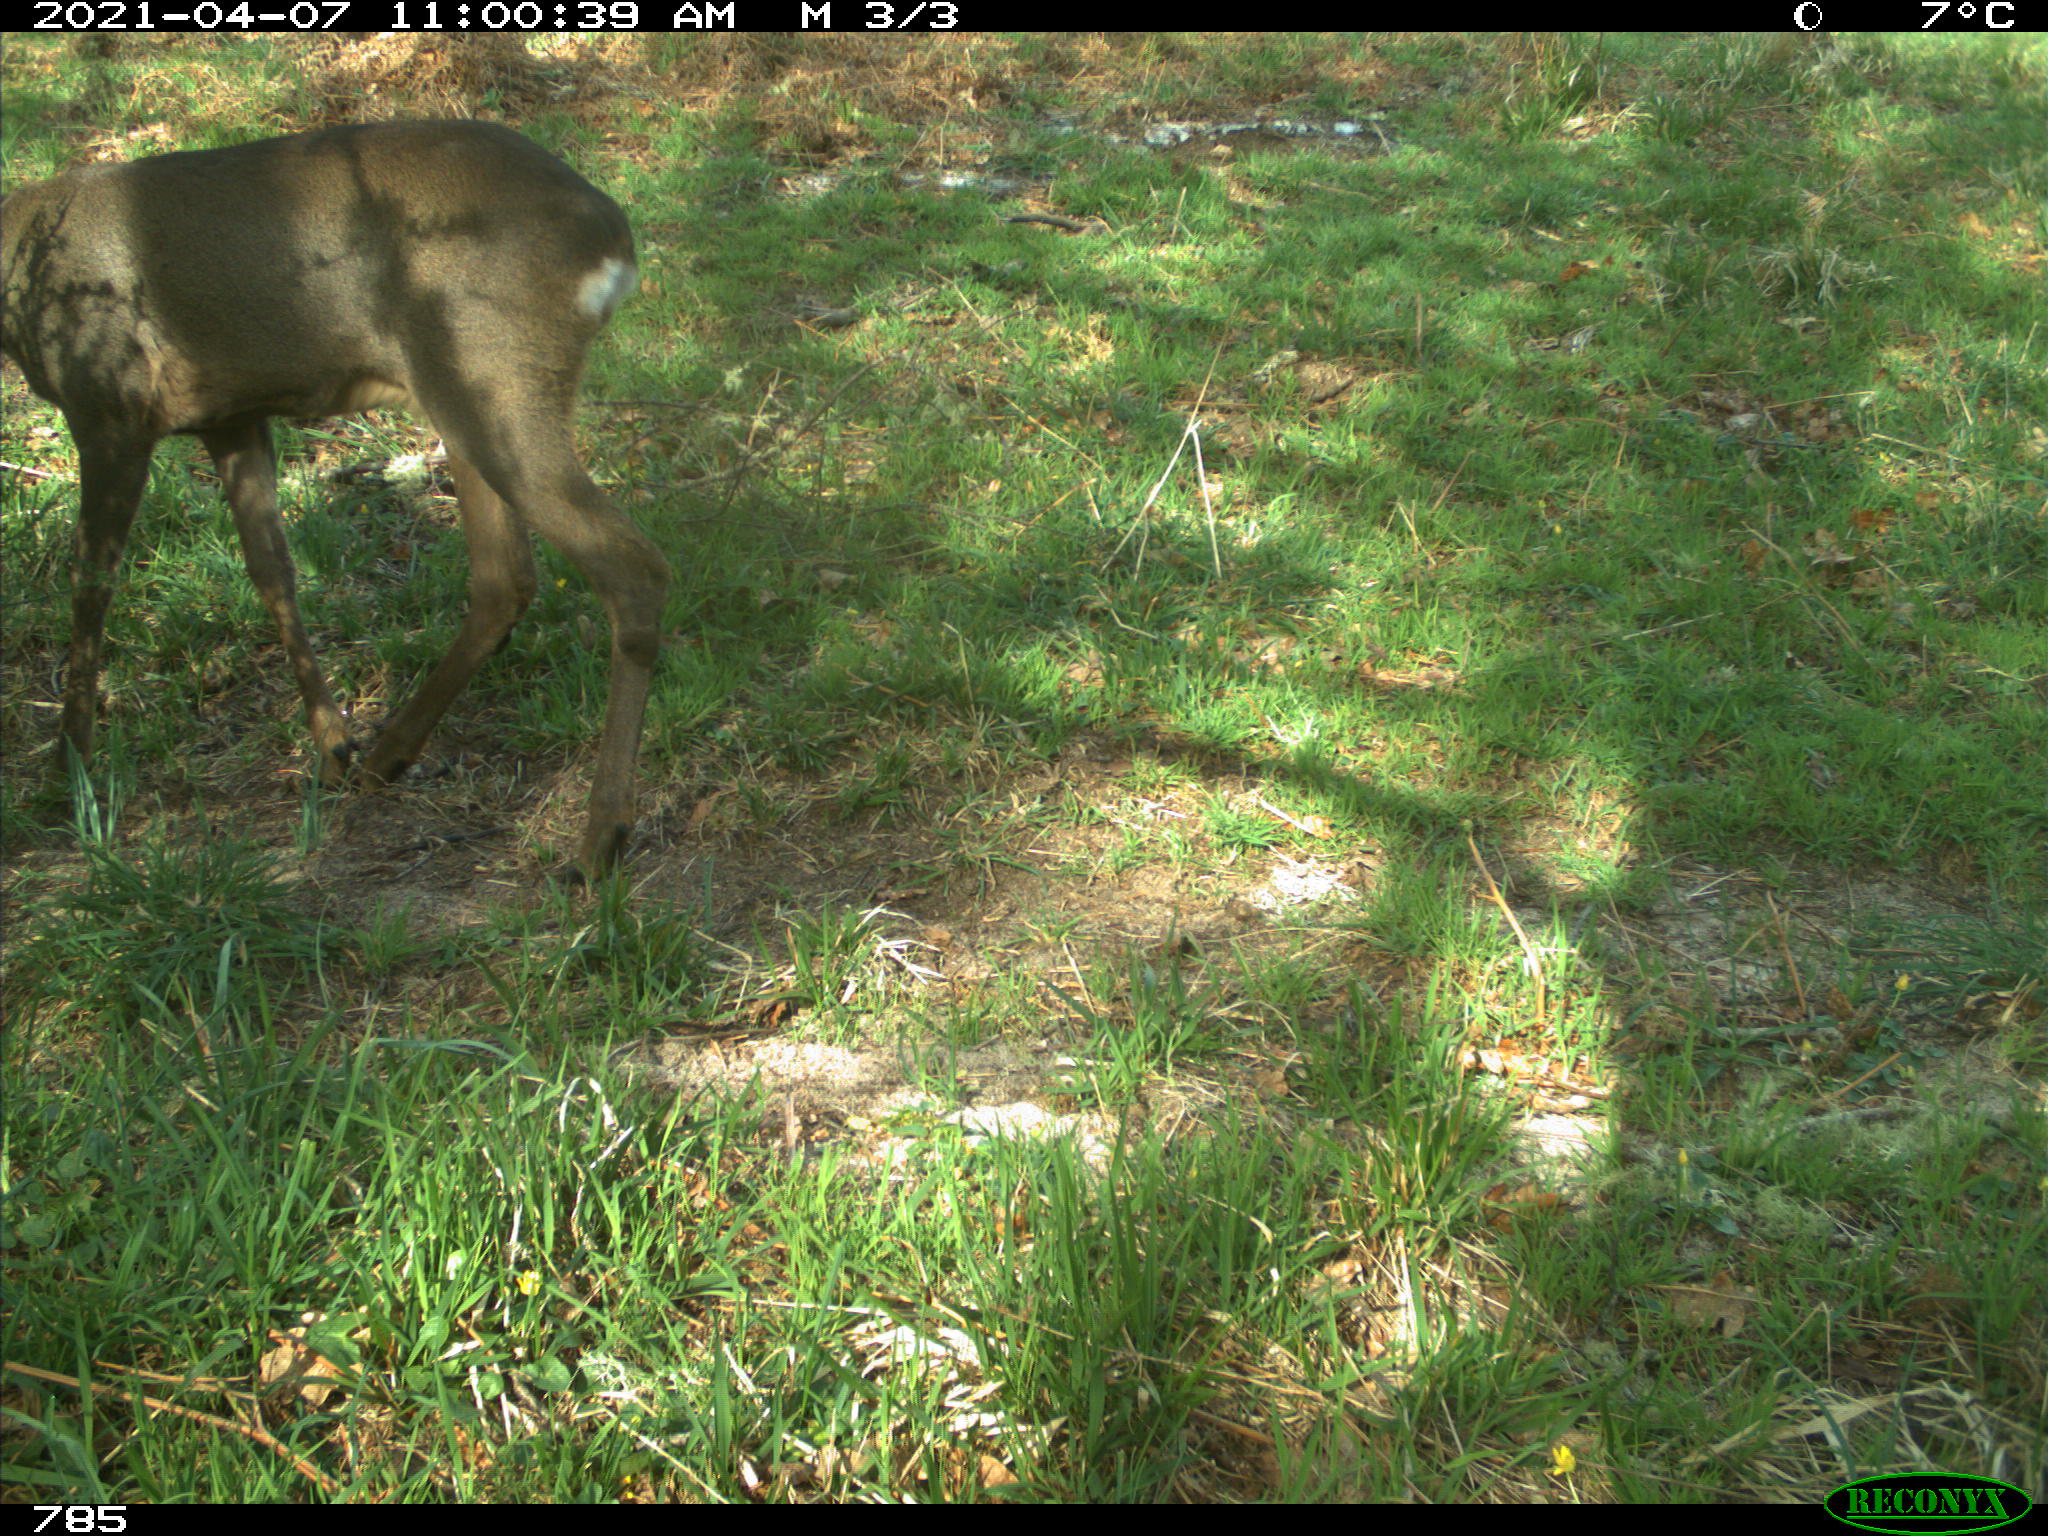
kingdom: Animalia
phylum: Chordata
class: Mammalia
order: Artiodactyla
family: Cervidae
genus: Capreolus
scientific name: Capreolus capreolus
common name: Western roe deer
